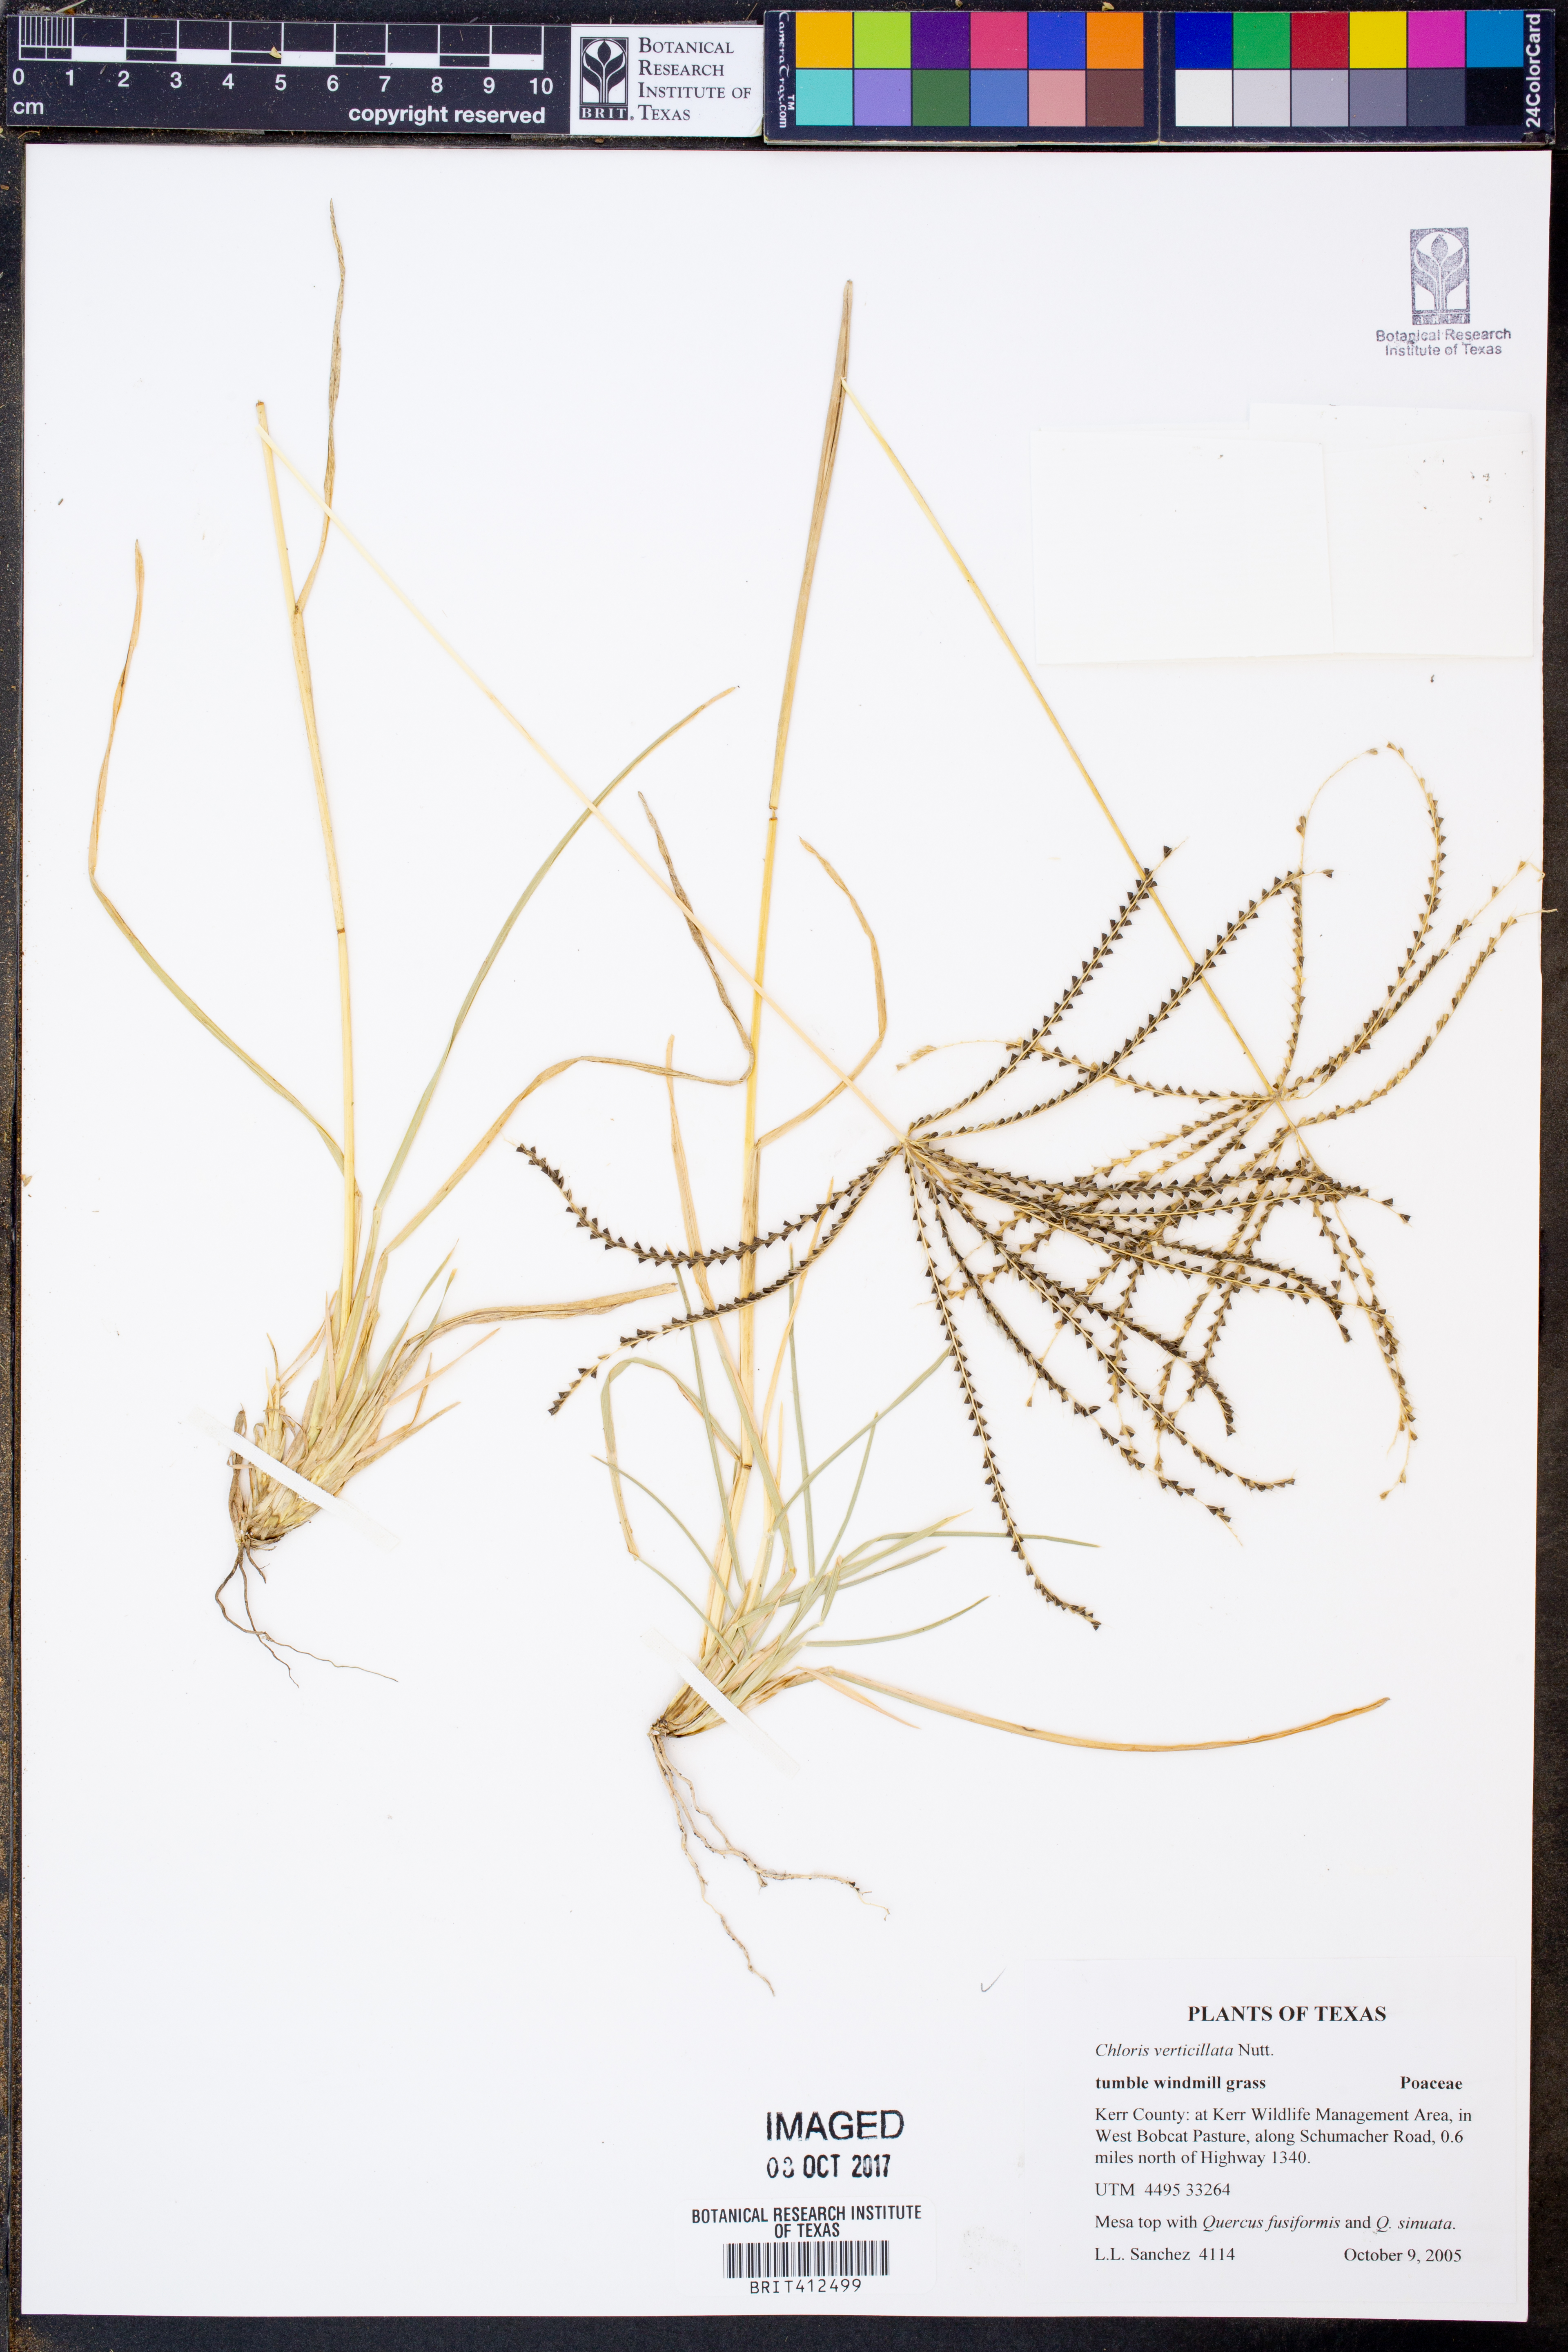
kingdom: Plantae
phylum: Tracheophyta
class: Liliopsida
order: Poales
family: Poaceae
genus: Chloris
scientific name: Chloris verticillata
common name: Tumble windmill grass
